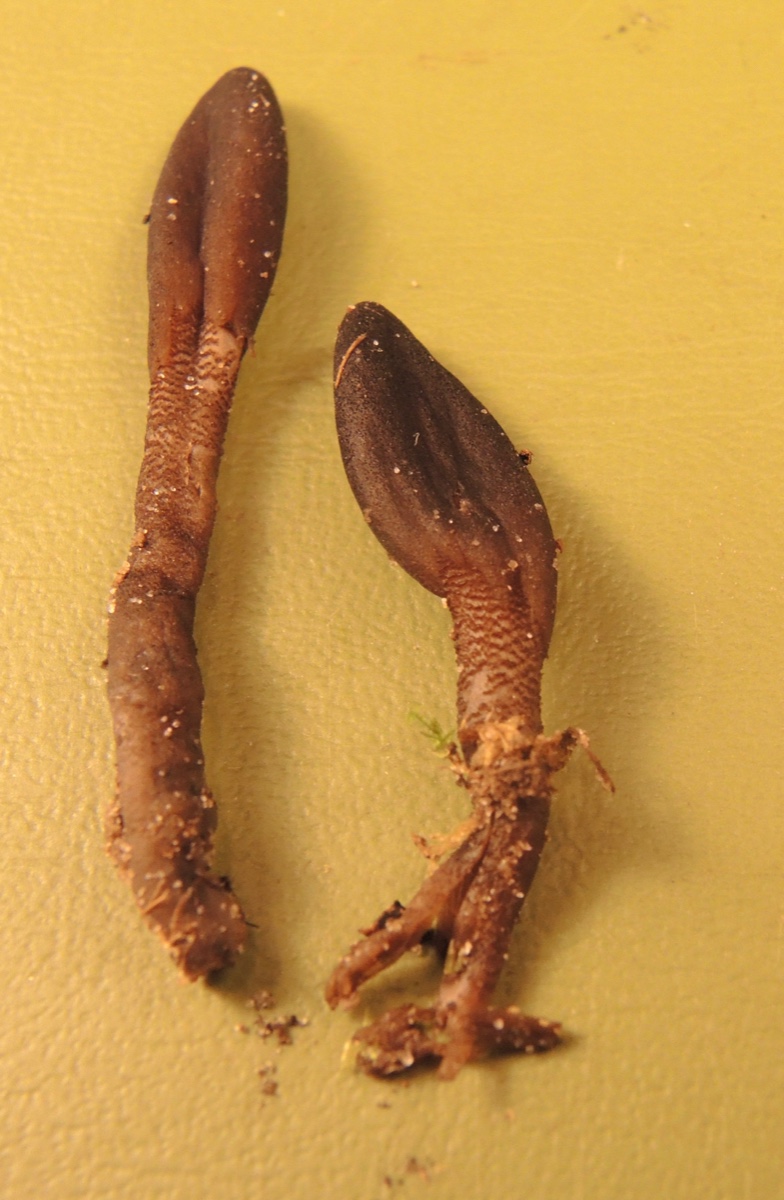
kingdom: Fungi
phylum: Ascomycota
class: Geoglossomycetes
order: Geoglossales
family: Geoglossaceae
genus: Geoglossum
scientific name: Geoglossum fallax
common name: småskællet jordtunge
